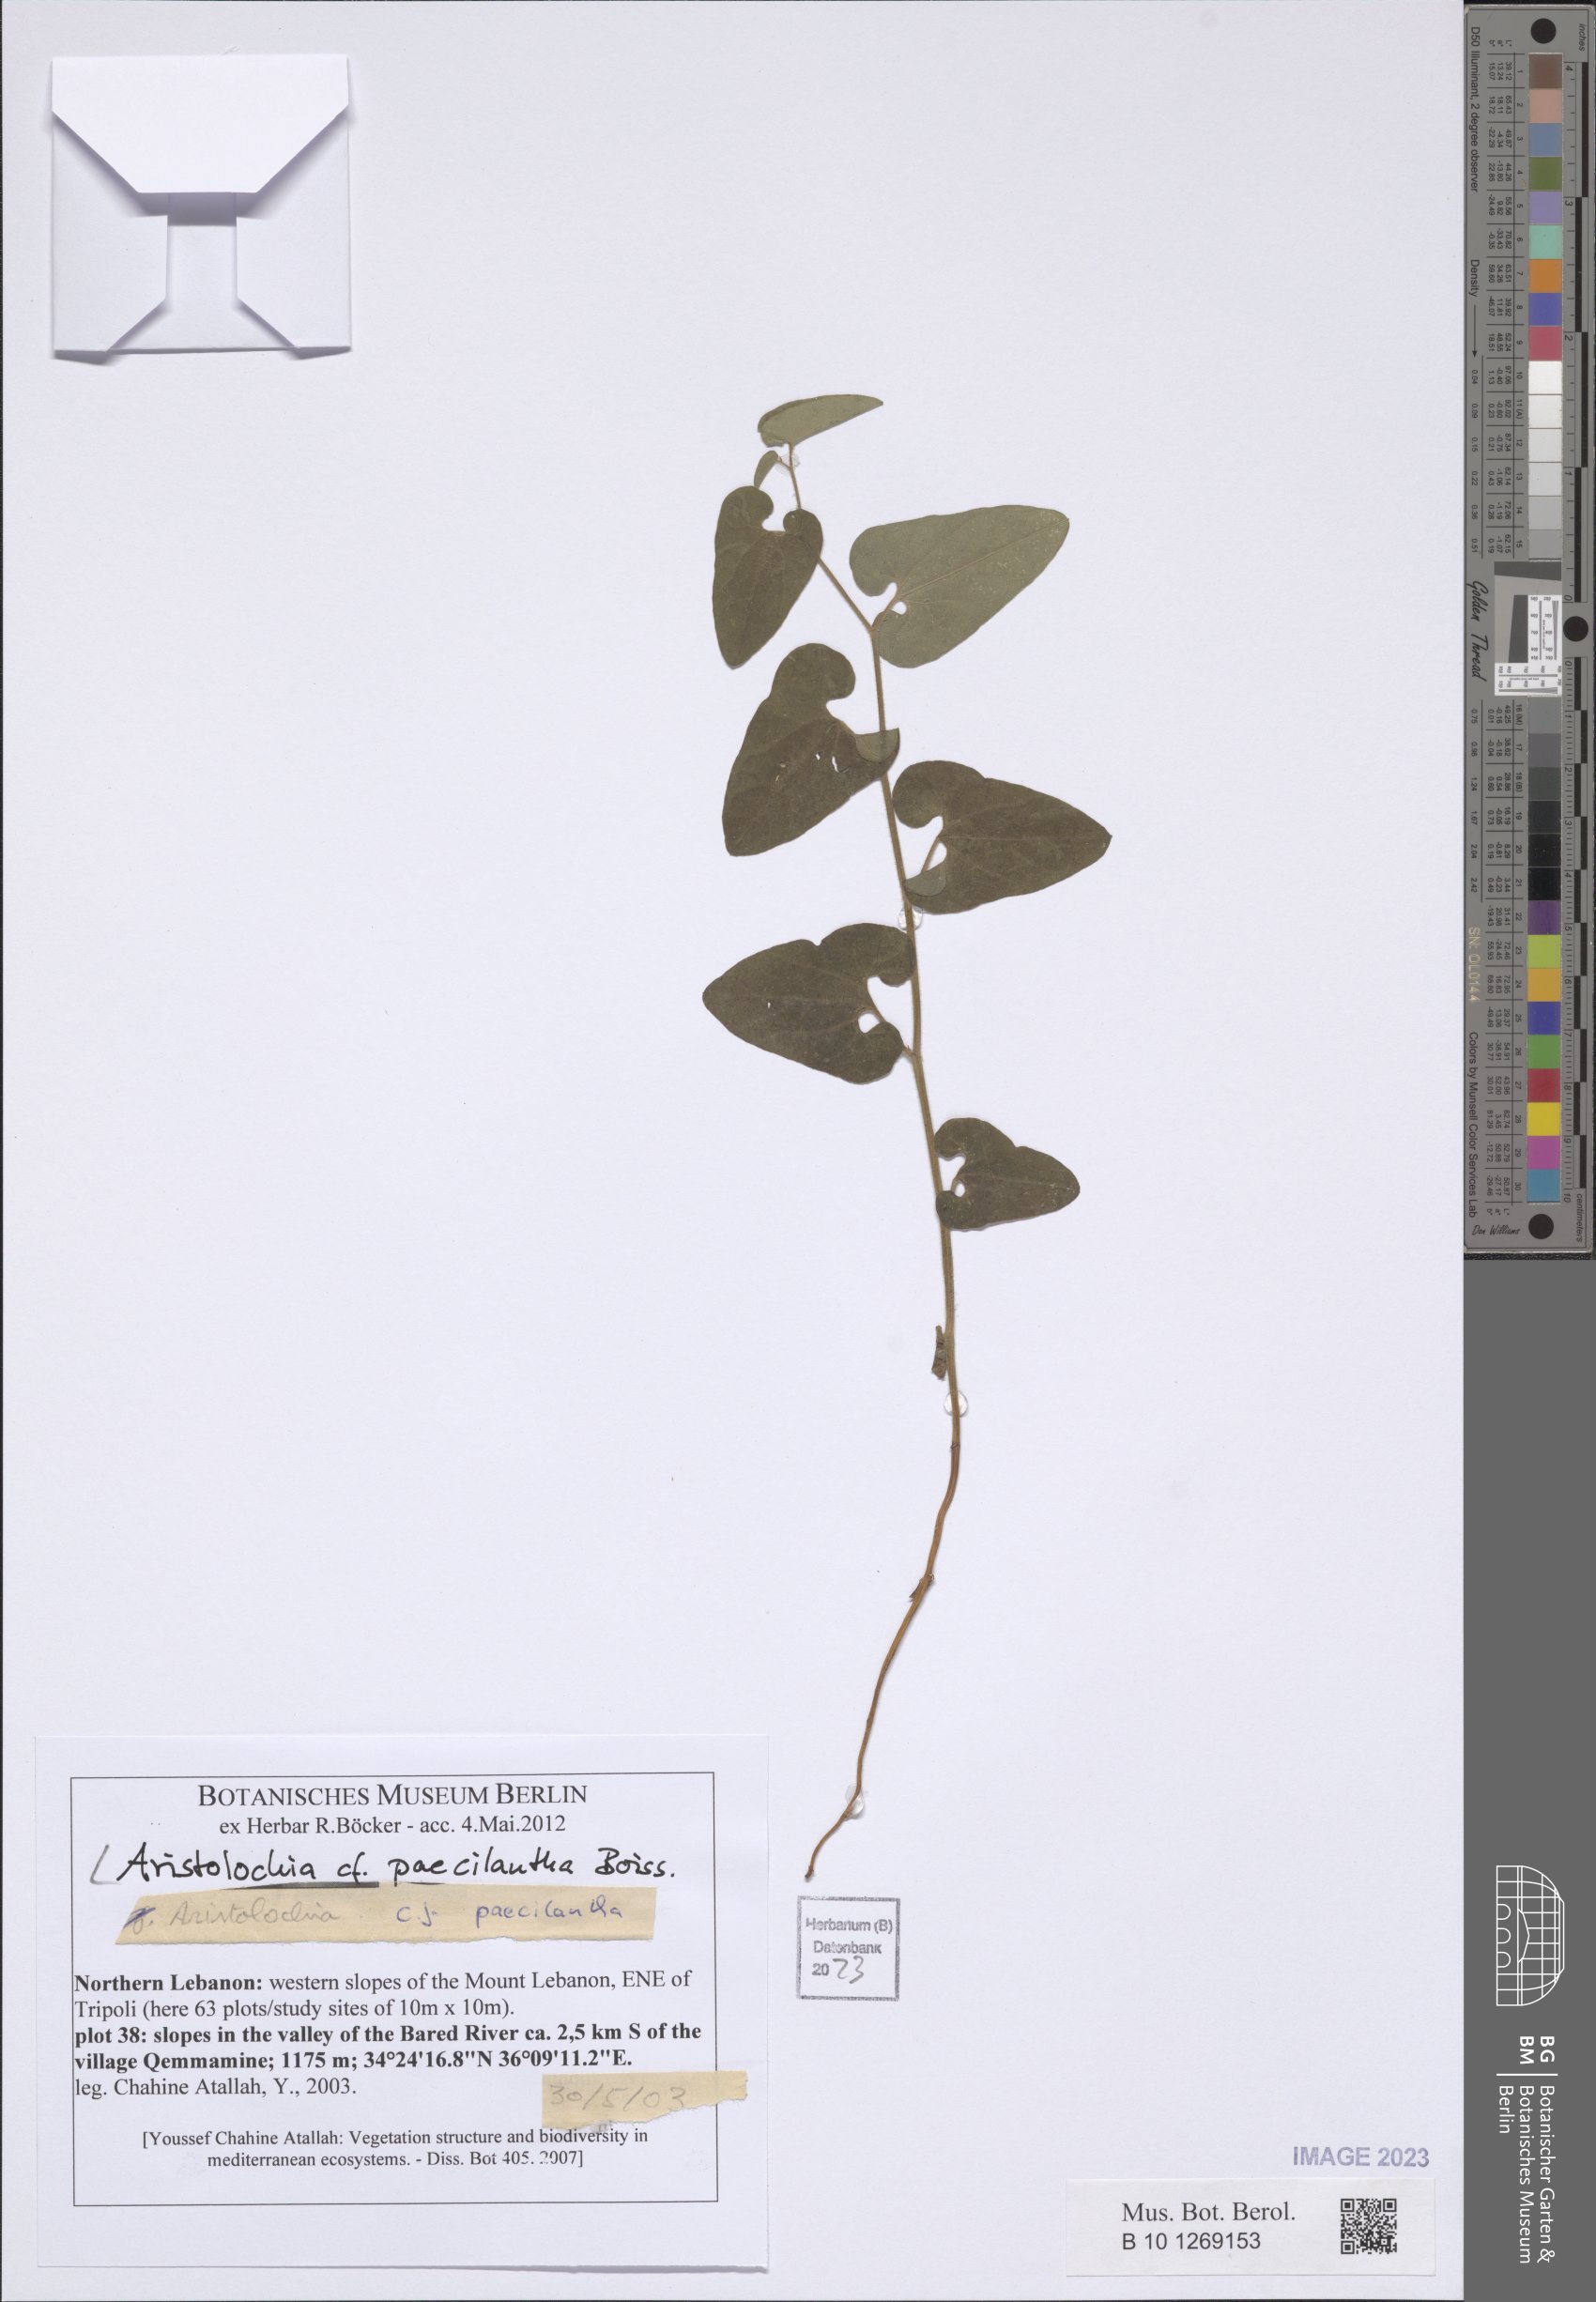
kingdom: Plantae
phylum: Tracheophyta
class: Magnoliopsida
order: Piperales
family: Aristolochiaceae
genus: Aristolochia
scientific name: Aristolochia paecilantha
